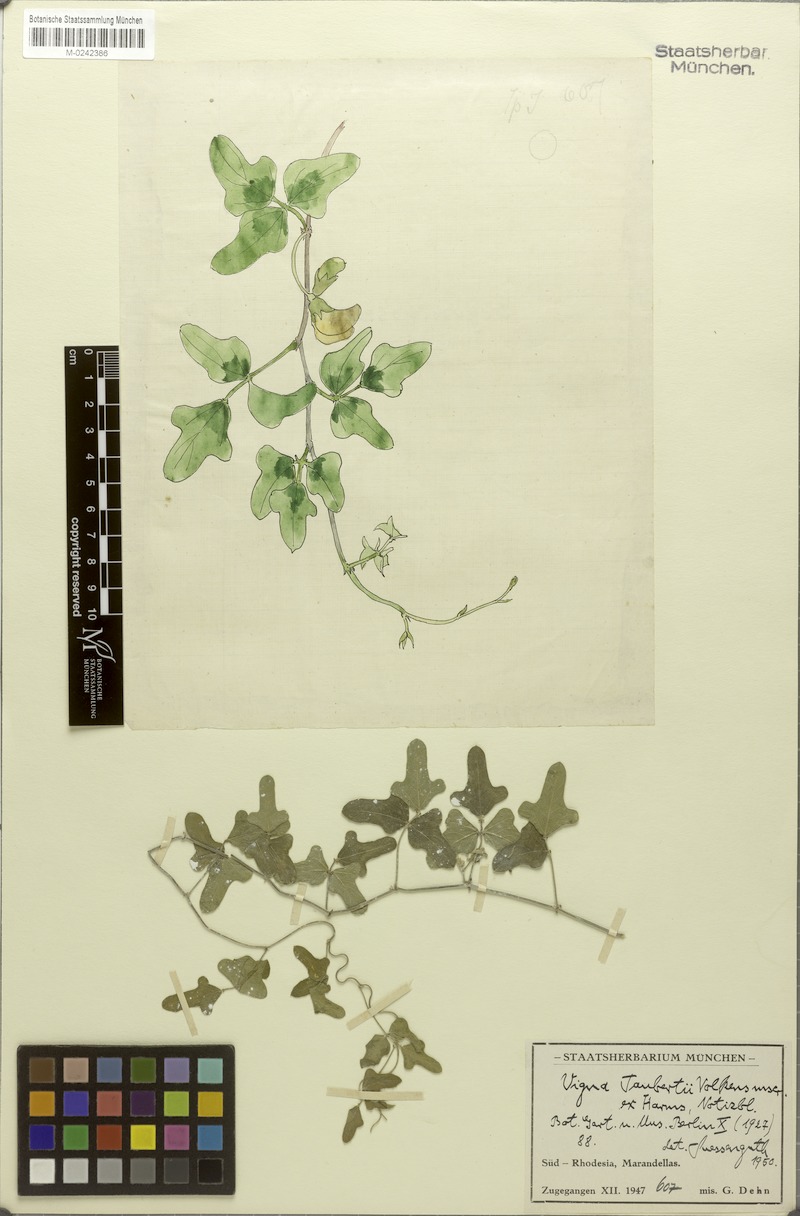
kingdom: Plantae
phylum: Tracheophyta
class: Magnoliopsida
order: Fabales
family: Fabaceae
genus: Vigna
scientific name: Vigna frutescens
